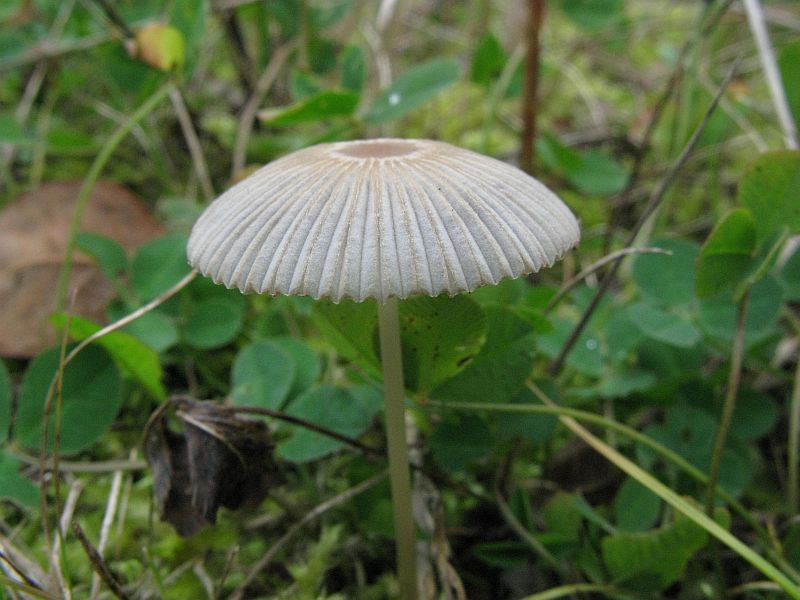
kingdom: Fungi
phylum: Basidiomycota
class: Agaricomycetes
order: Agaricales
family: Psathyrellaceae
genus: Parasola
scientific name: Parasola lactea
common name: glat hjulhat
